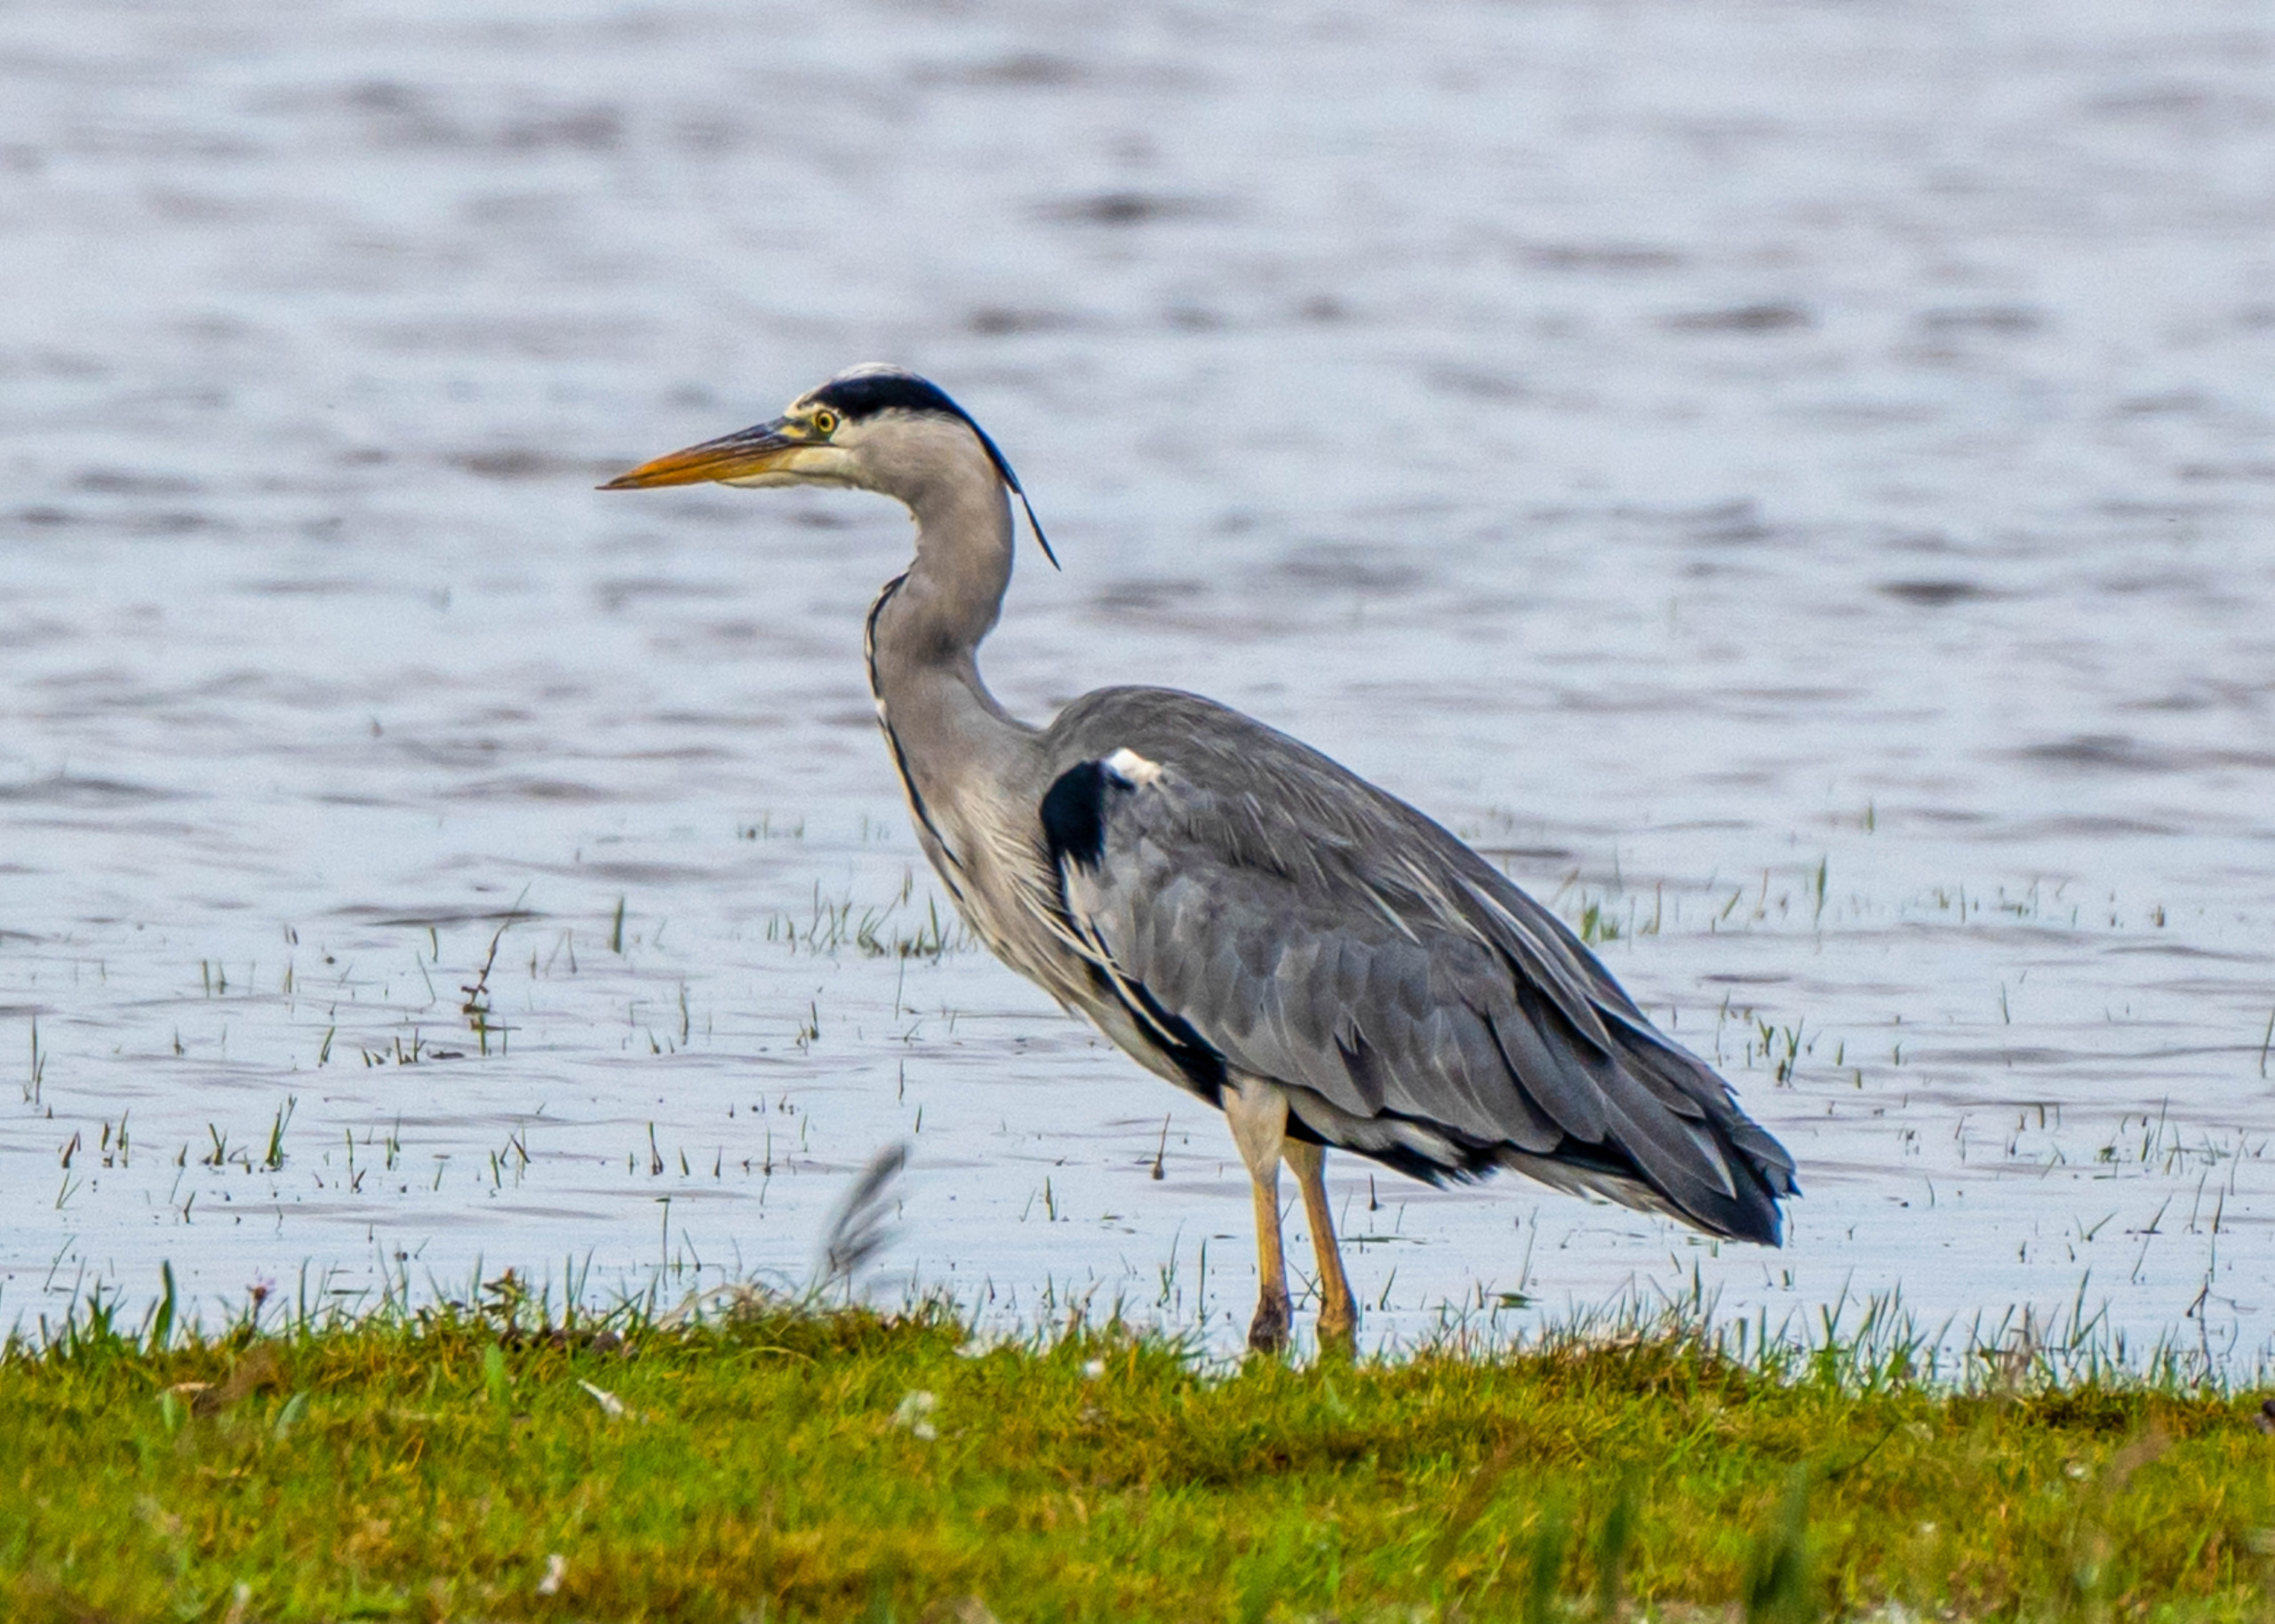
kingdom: Animalia
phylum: Chordata
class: Aves
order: Pelecaniformes
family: Ardeidae
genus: Ardea
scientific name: Ardea cinerea
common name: Fiskehejre
